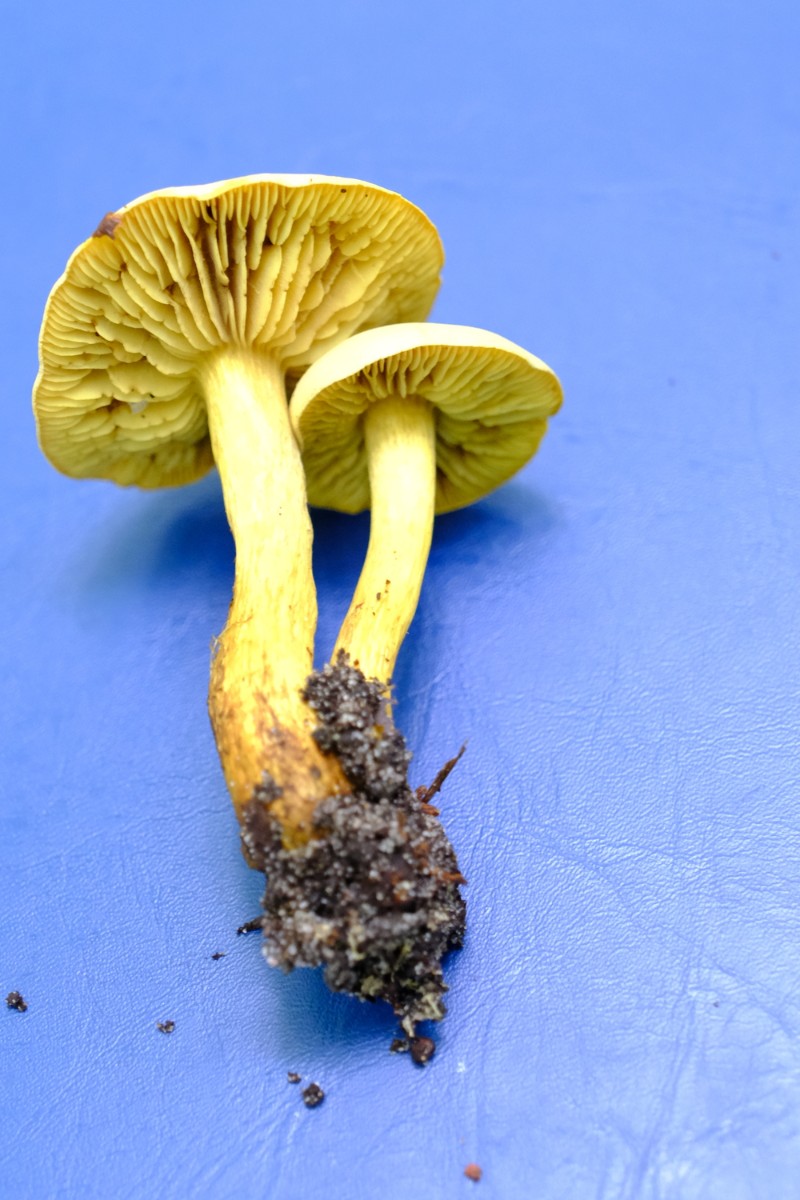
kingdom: Fungi
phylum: Basidiomycota
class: Agaricomycetes
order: Agaricales
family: Tricholomataceae
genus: Tricholoma
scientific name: Tricholoma sulphureum
